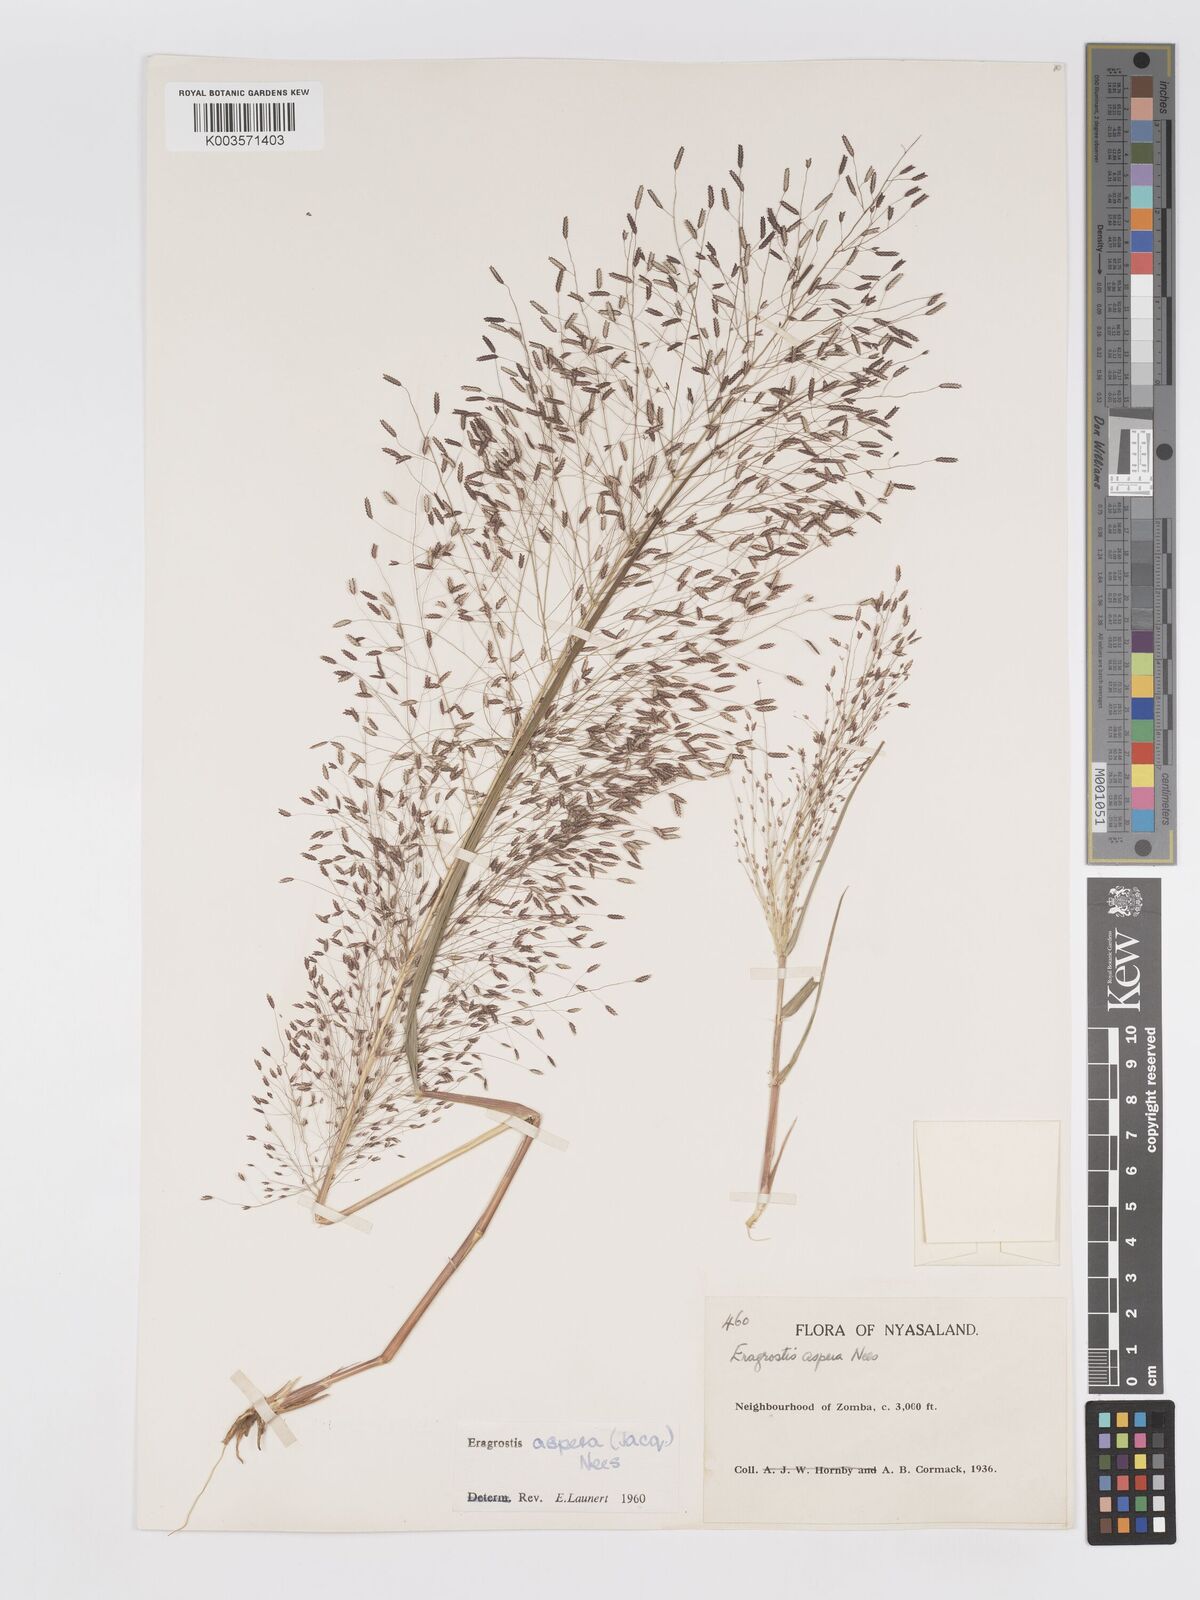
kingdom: Plantae
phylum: Tracheophyta
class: Liliopsida
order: Poales
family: Poaceae
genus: Eragrostis
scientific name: Eragrostis aspera
